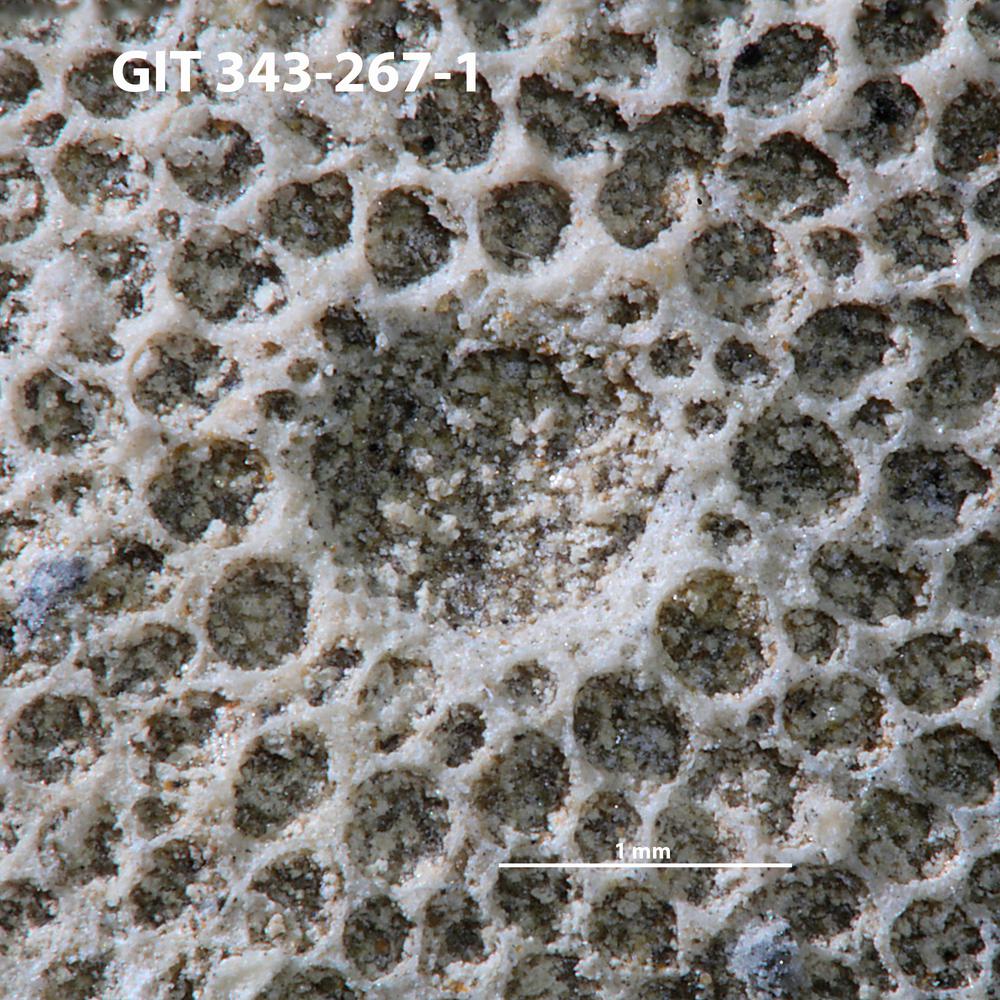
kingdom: Animalia
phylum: Annelida
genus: Anoigmaichnus
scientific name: Anoigmaichnus
